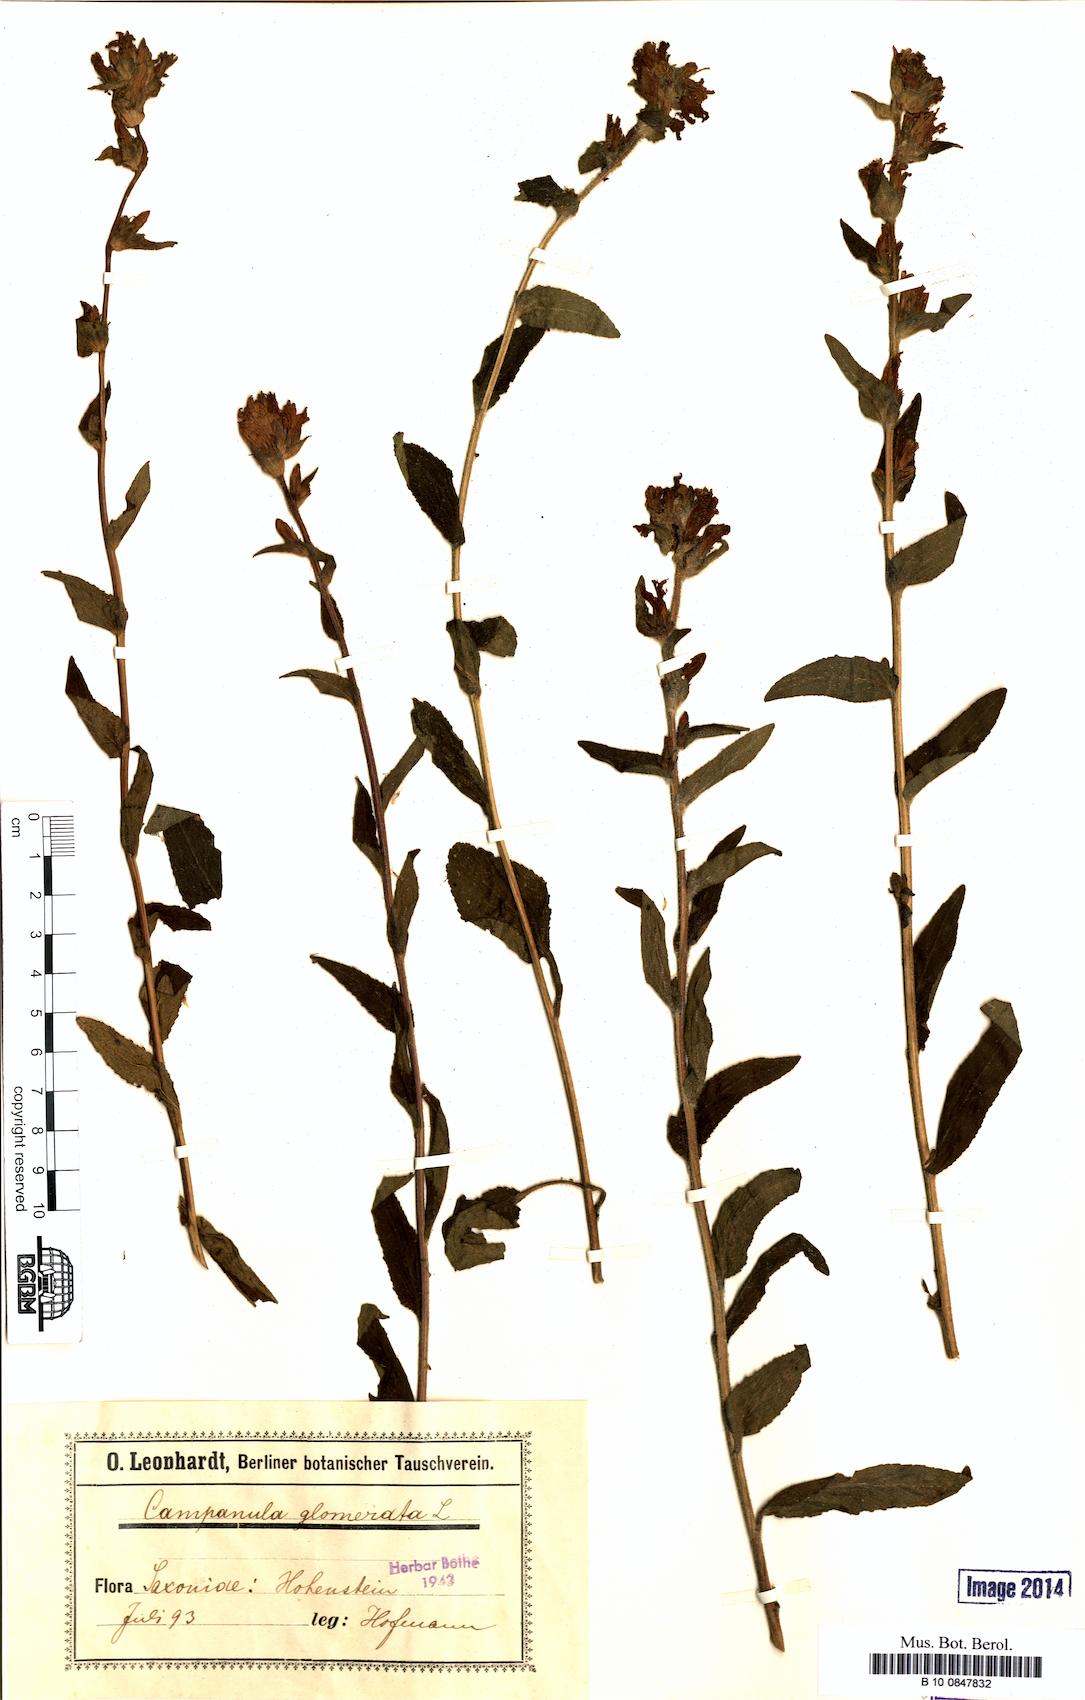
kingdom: Plantae
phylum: Tracheophyta
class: Magnoliopsida
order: Asterales
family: Campanulaceae
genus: Campanula
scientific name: Campanula glomerata
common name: Clustered bellflower
